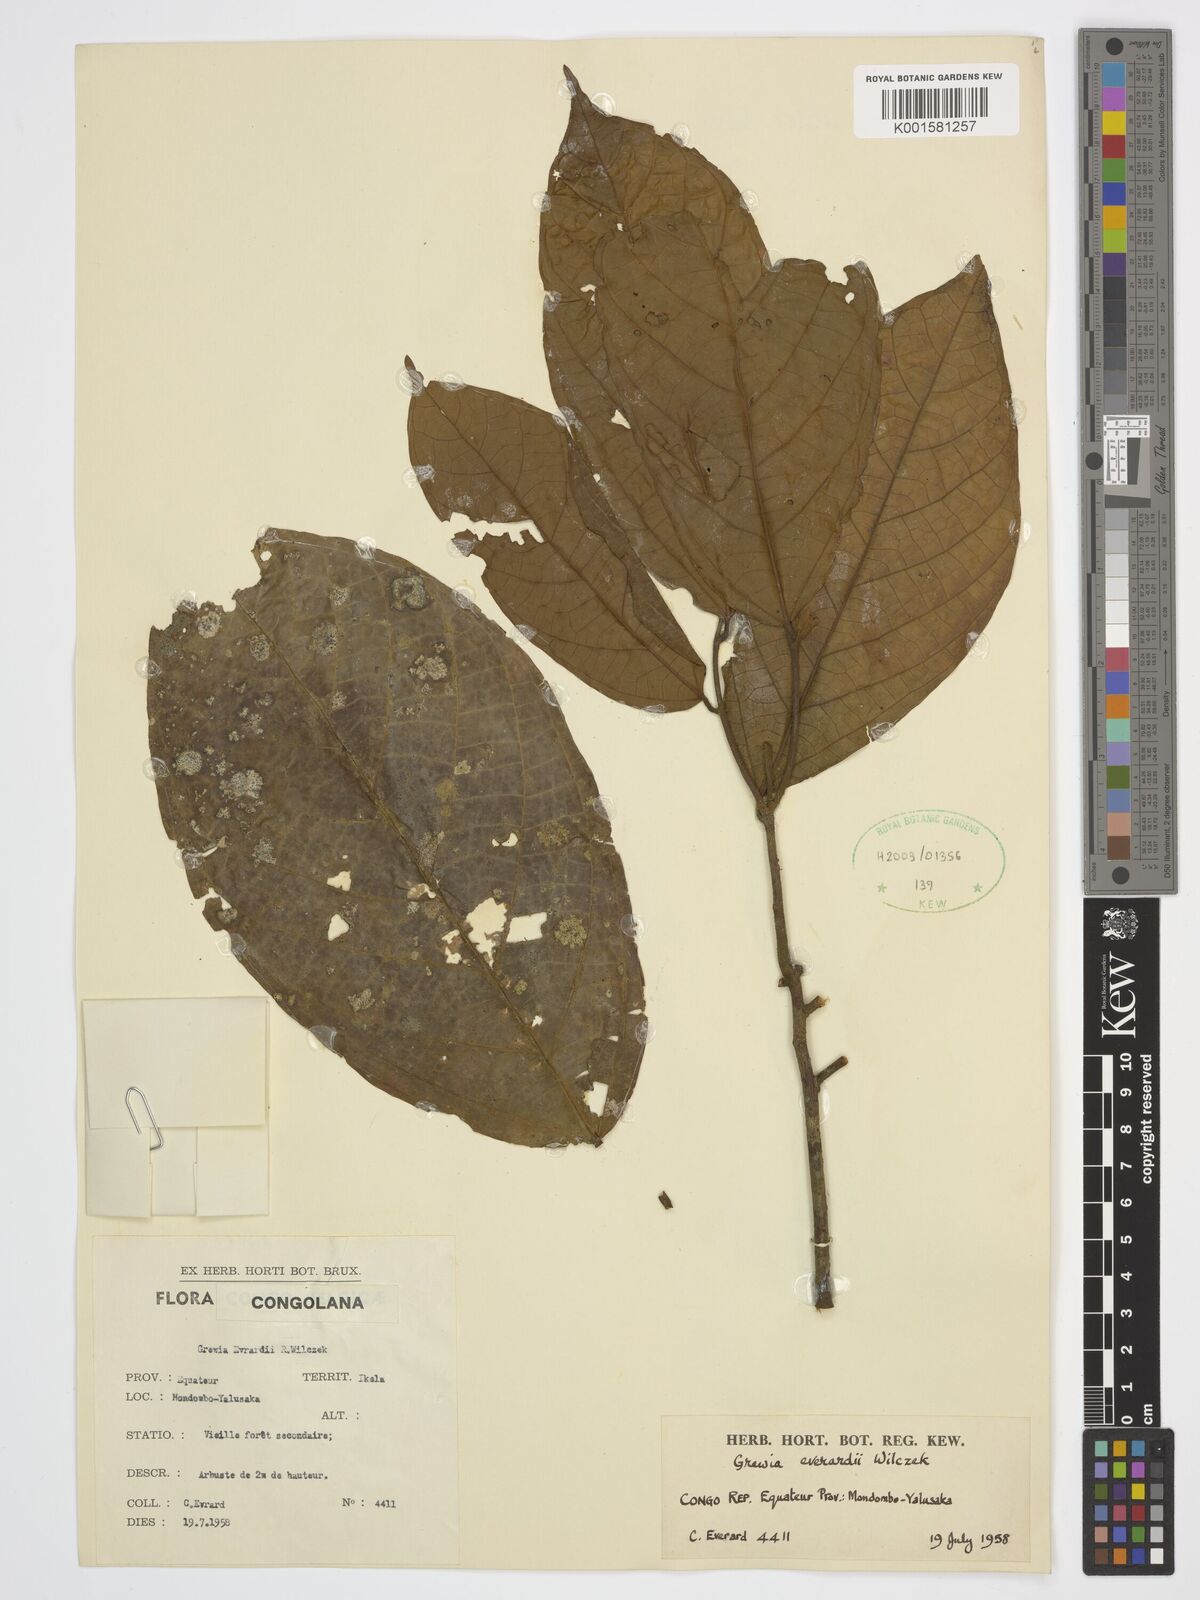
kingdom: Plantae
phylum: Tracheophyta
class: Magnoliopsida
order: Malvales
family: Malvaceae
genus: Grewia
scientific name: Grewia evrardii
